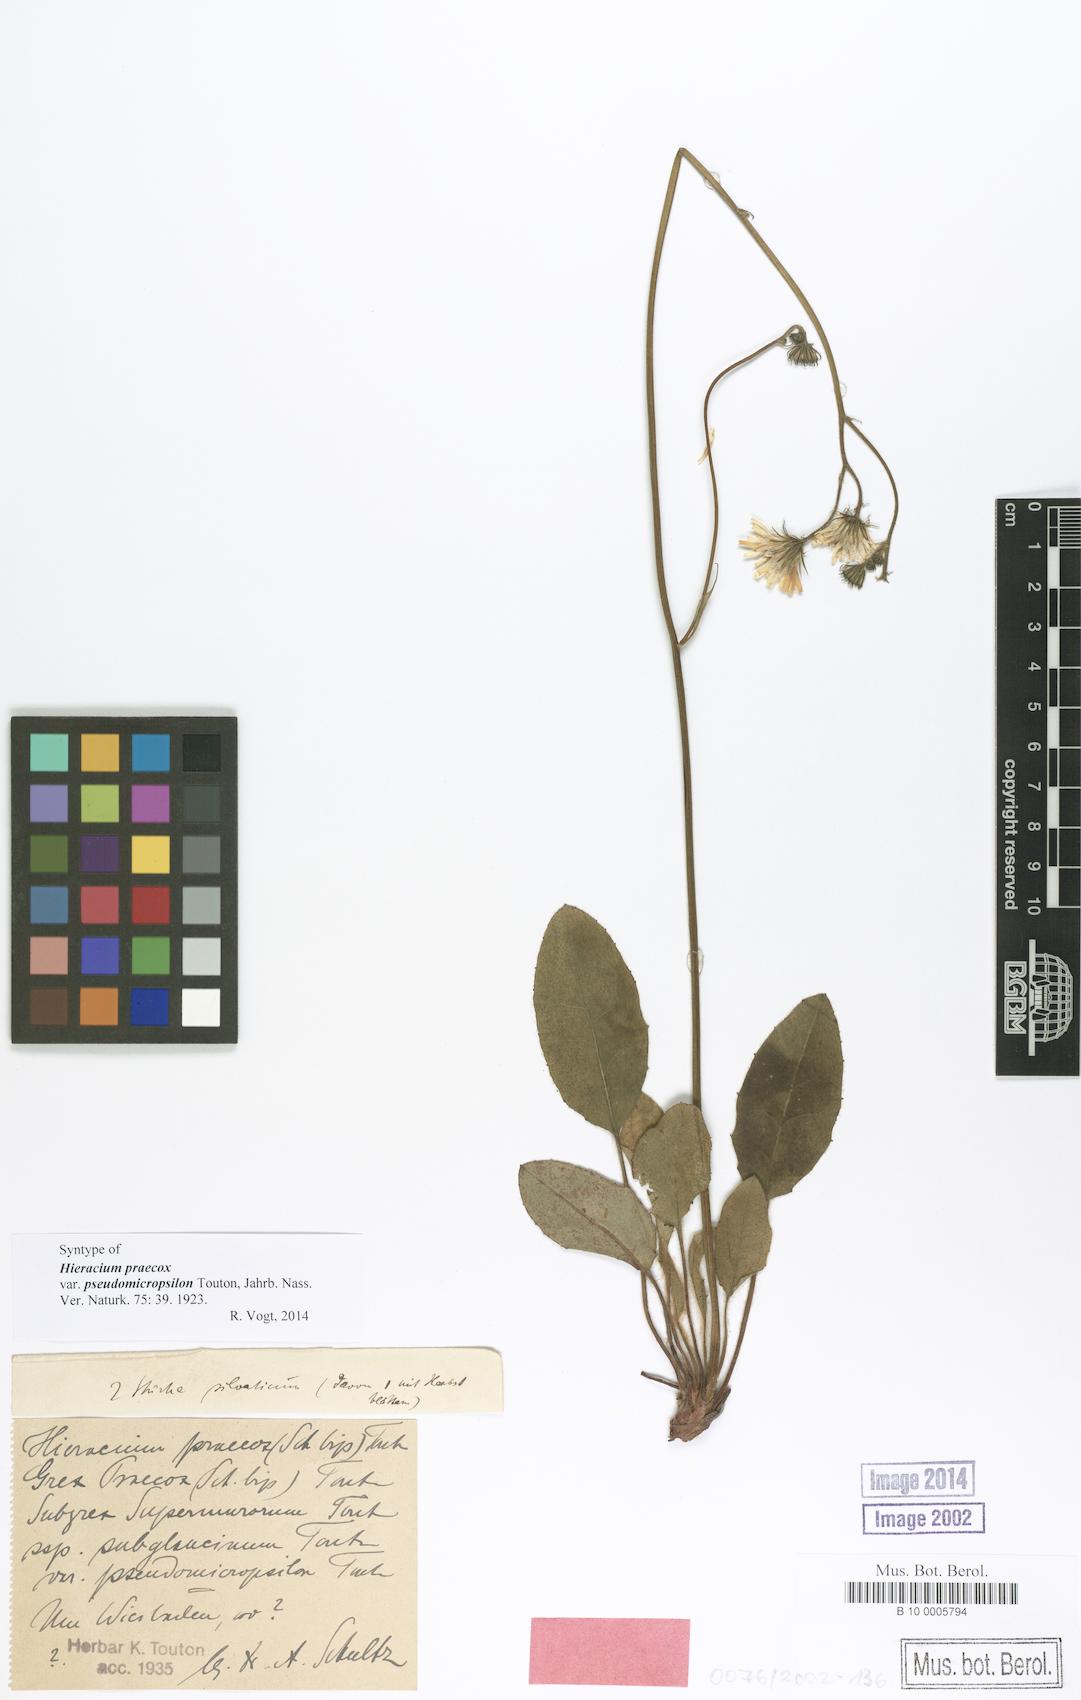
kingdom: Plantae
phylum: Tracheophyta
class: Magnoliopsida
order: Asterales
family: Asteraceae
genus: Hieracium
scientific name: Hieracium praecox
